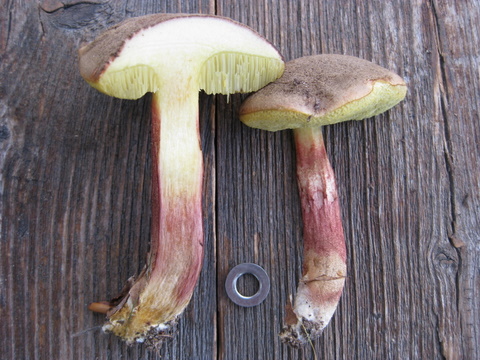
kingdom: Fungi
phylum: Basidiomycota
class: Agaricomycetes
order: Boletales
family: Boletaceae
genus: Xerocomellus
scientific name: Xerocomellus chrysenteron
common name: rødsprukken rørhat
